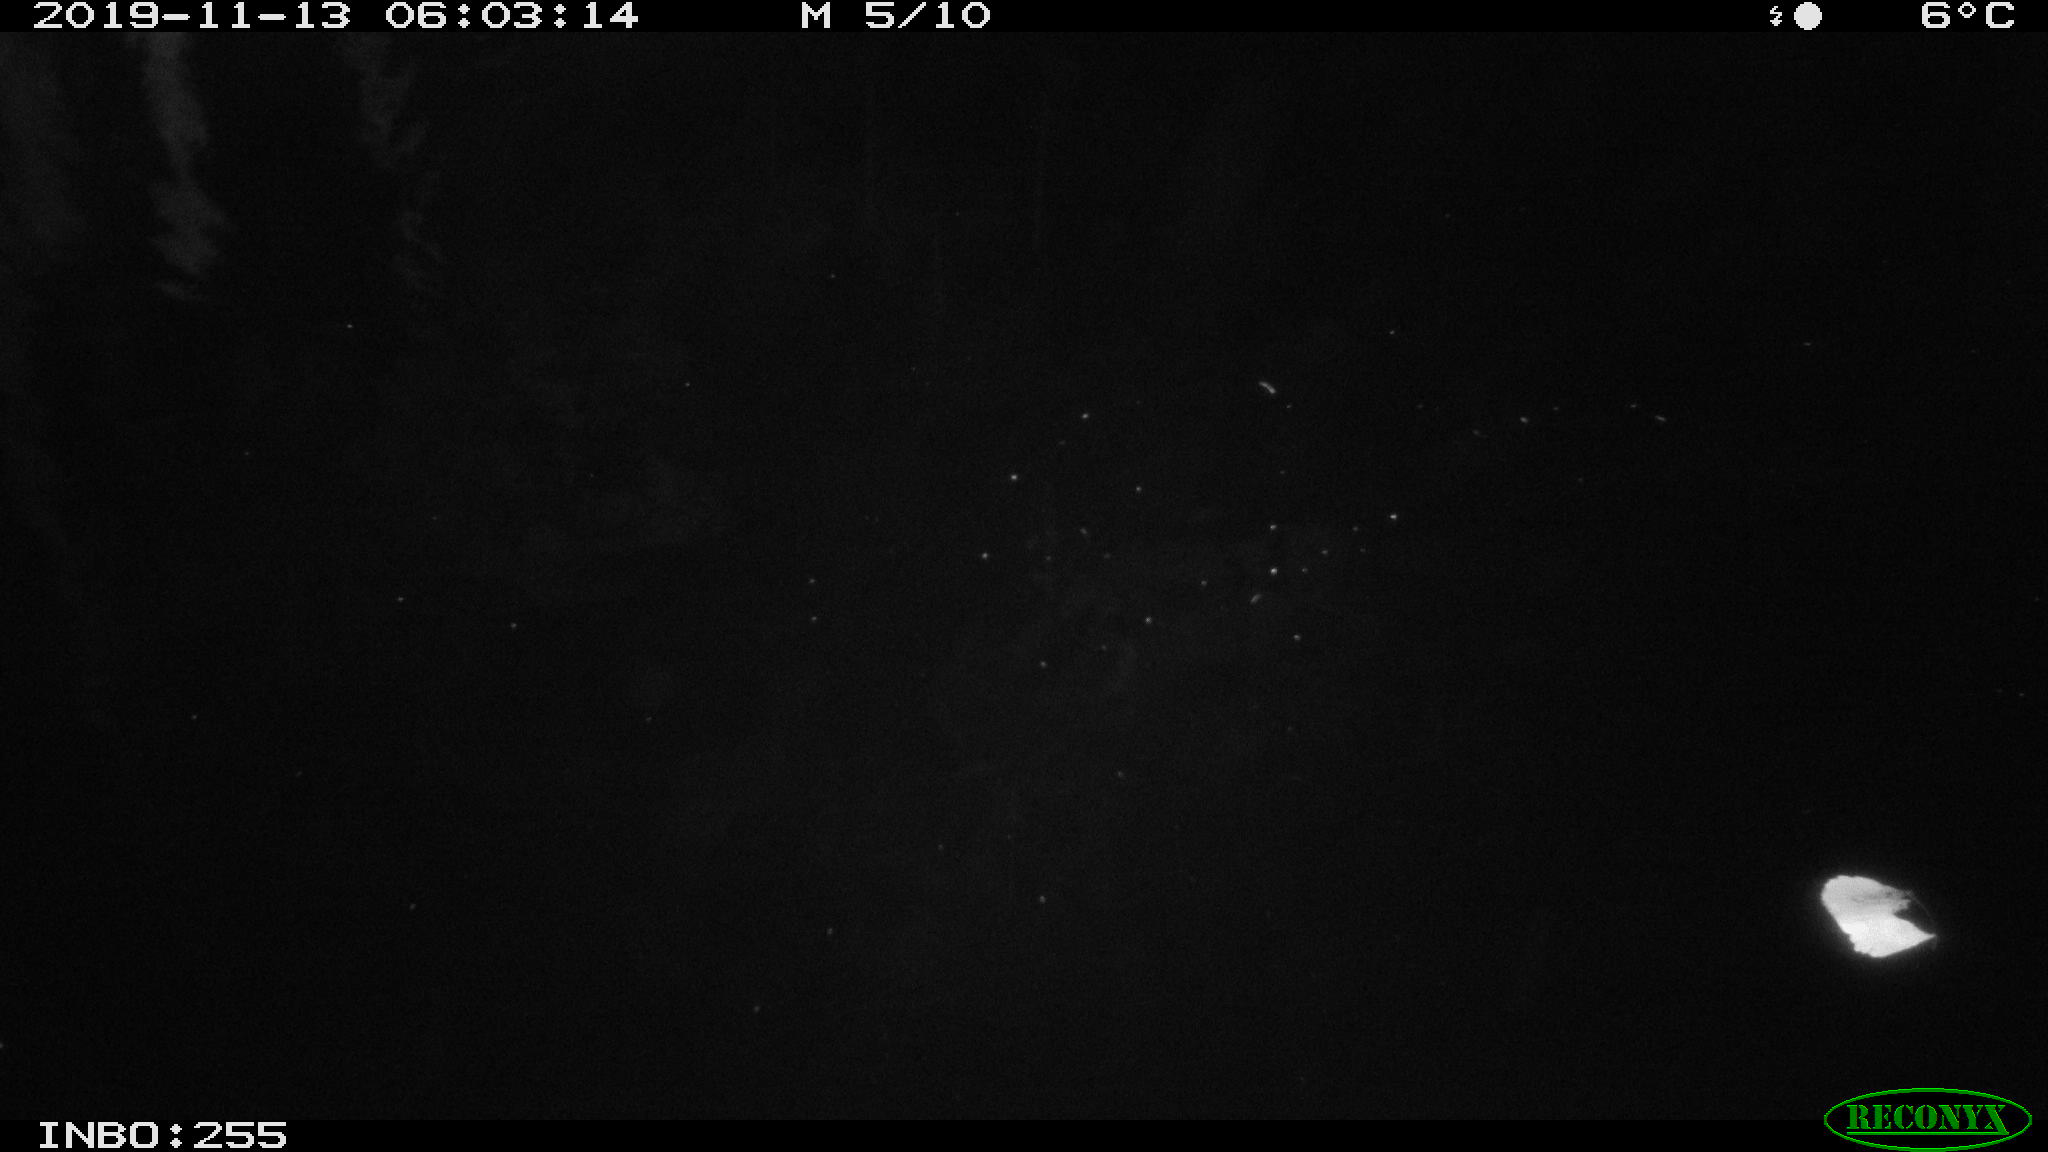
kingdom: Animalia
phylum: Chordata
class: Mammalia
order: Rodentia
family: Cricetidae
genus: Ondatra
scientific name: Ondatra zibethicus
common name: Muskrat
